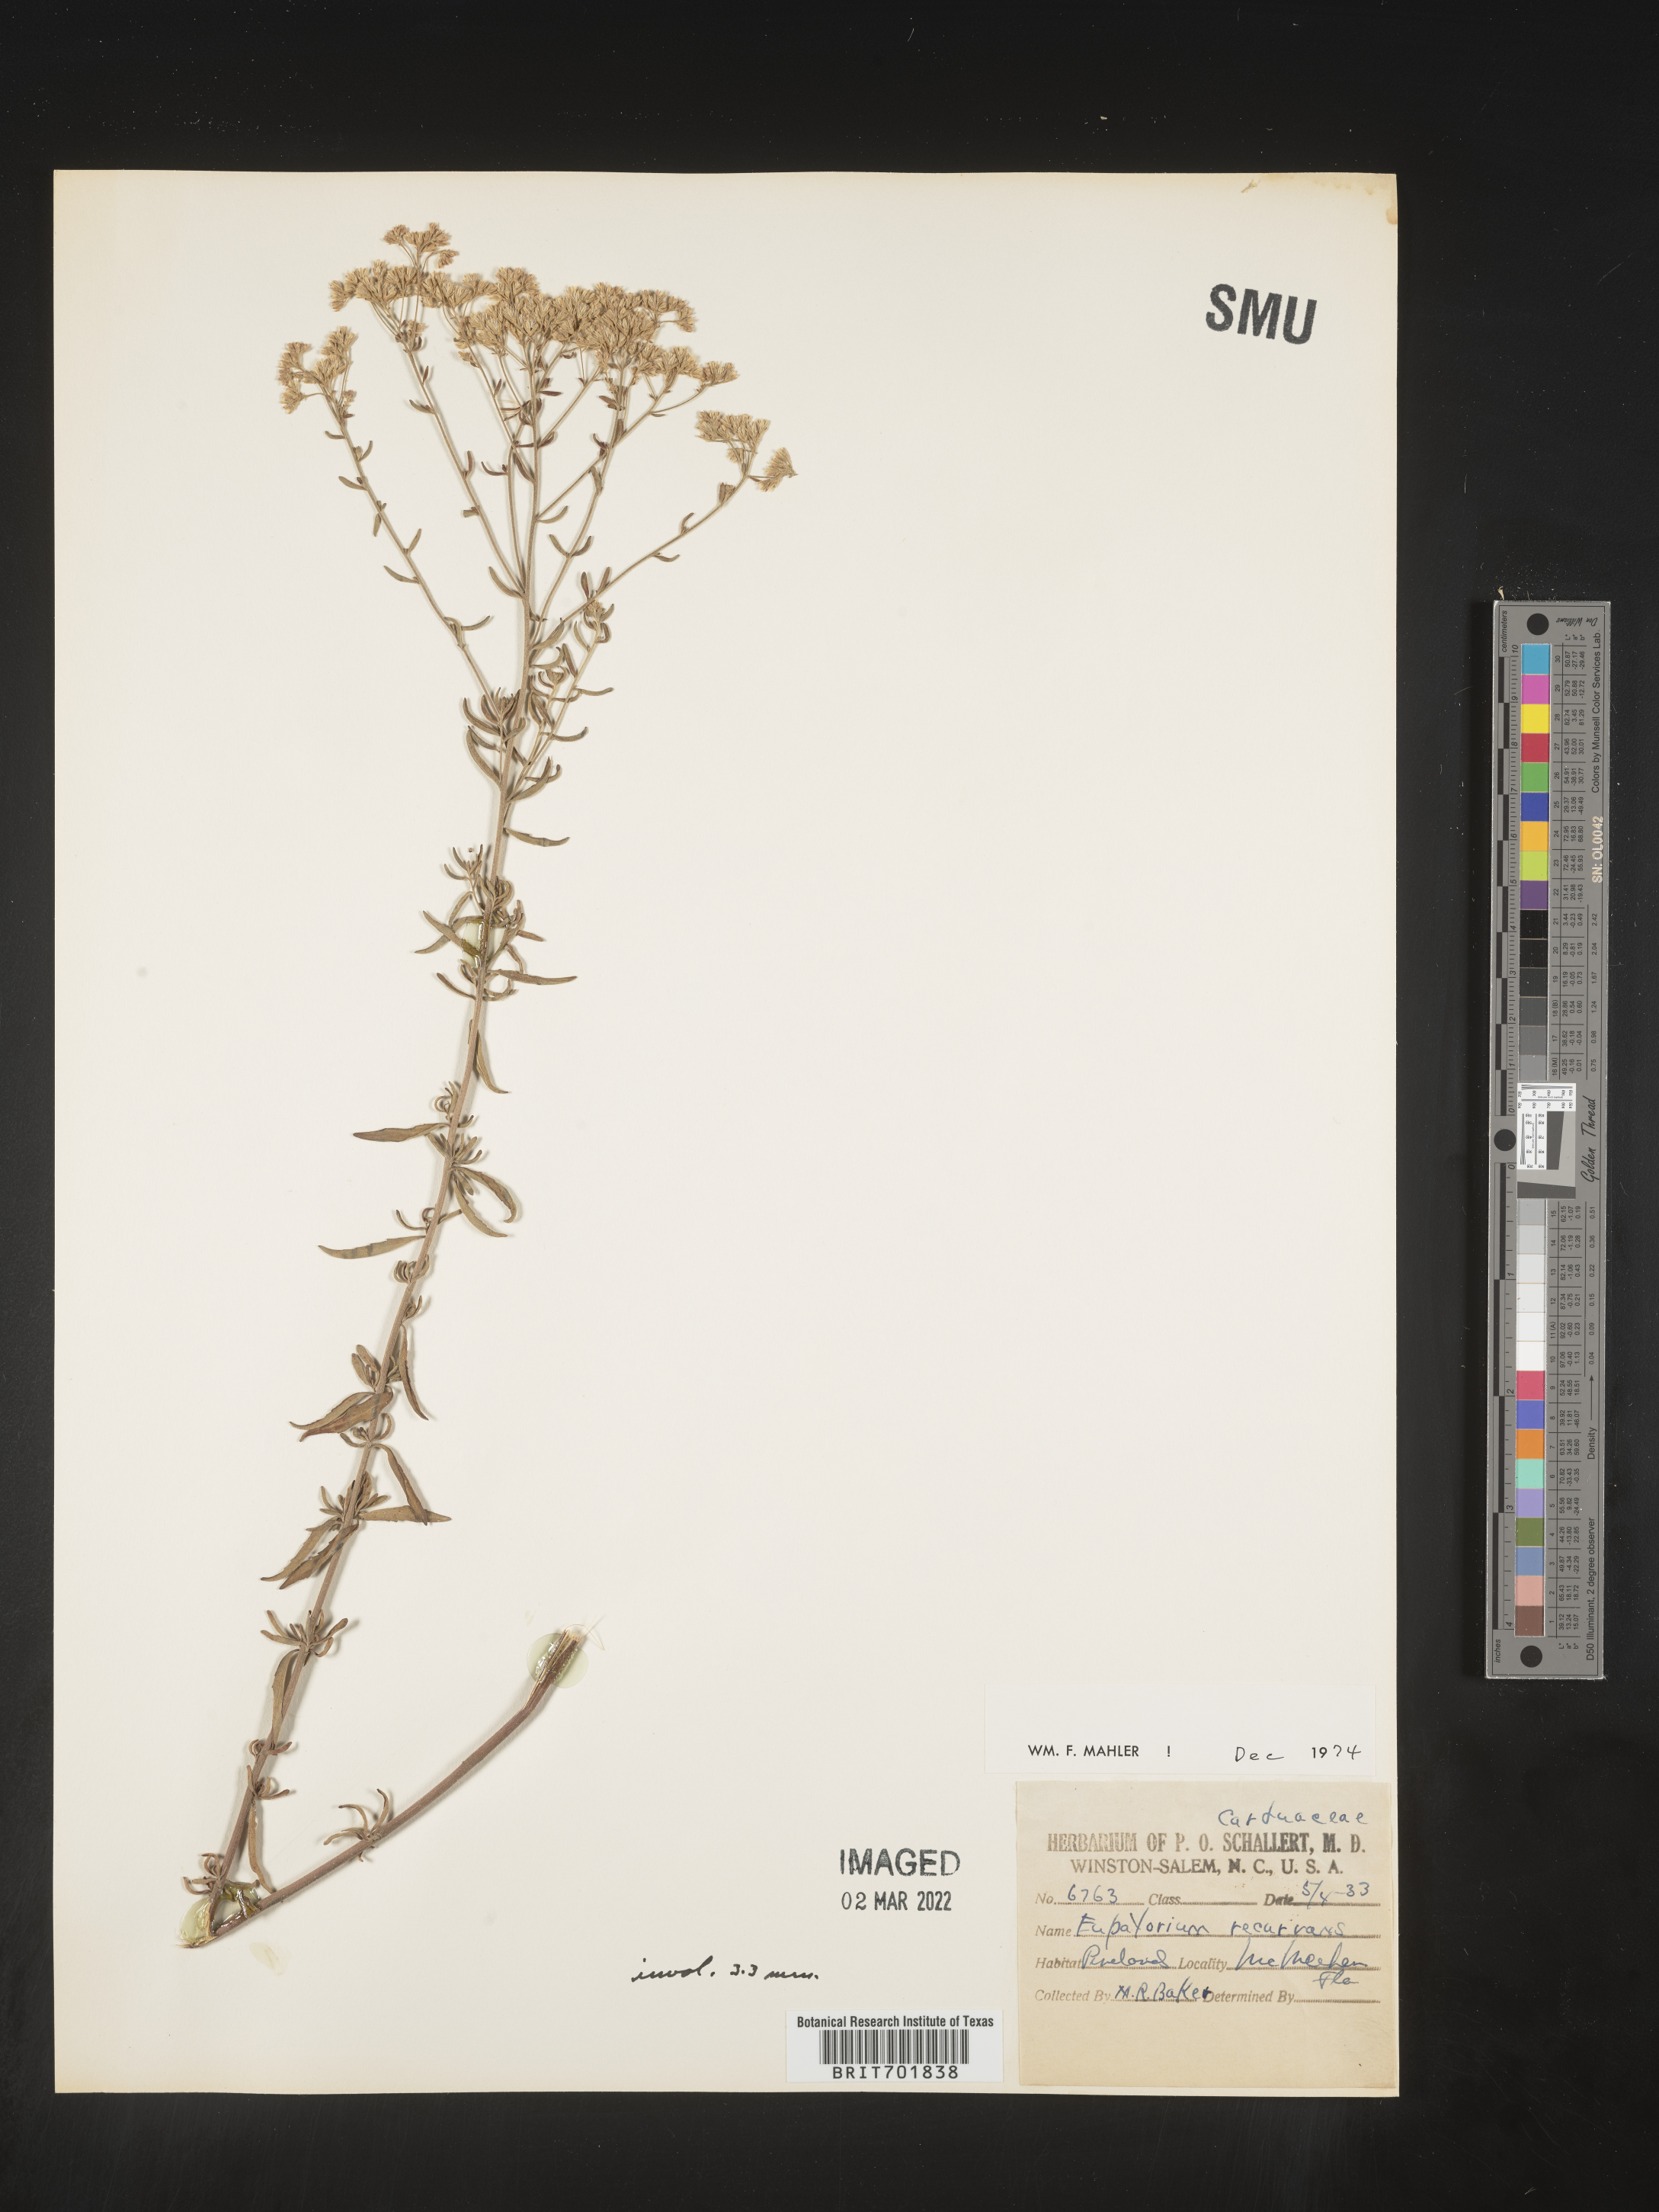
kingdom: Plantae
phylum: Tracheophyta
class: Magnoliopsida
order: Asterales
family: Asteraceae
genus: Eupatorium
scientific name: Eupatorium mohrii
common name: Mohr's thoroughwort
